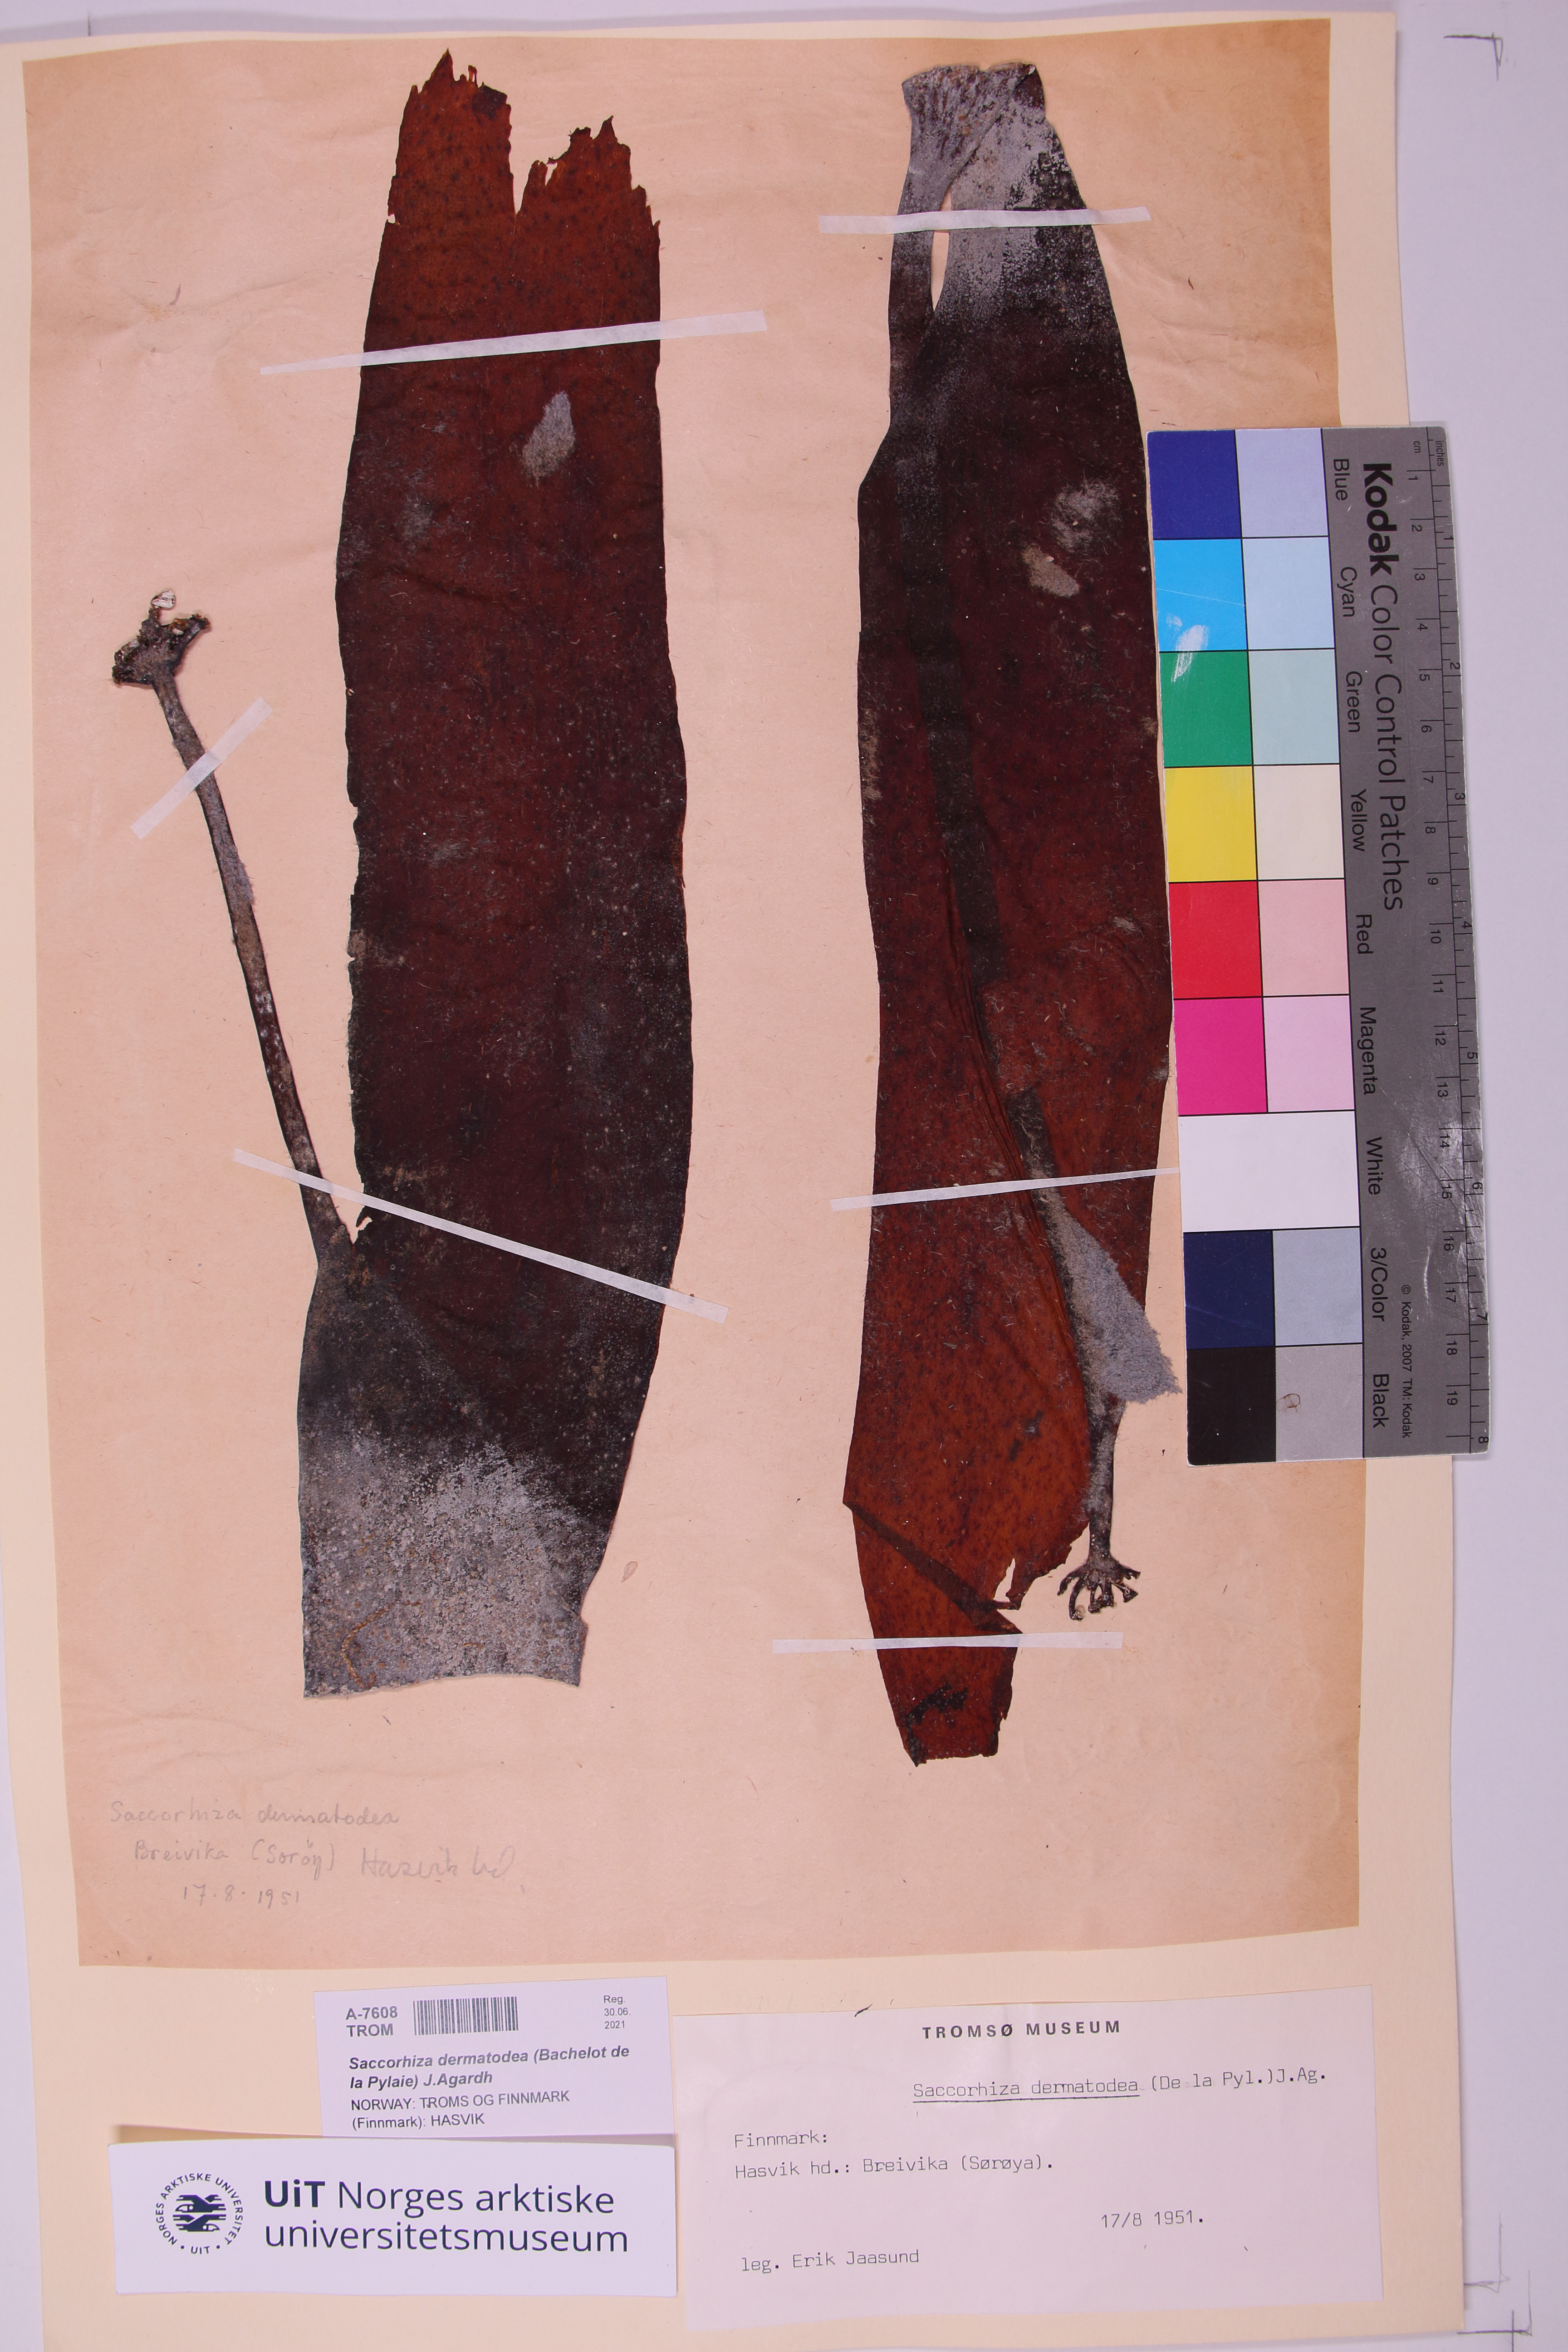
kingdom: Chromista
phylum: Ochrophyta
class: Phaeophyceae
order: Tilopteridales
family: Phyllariaceae
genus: Saccorhiza
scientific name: Saccorhiza dermatodea
